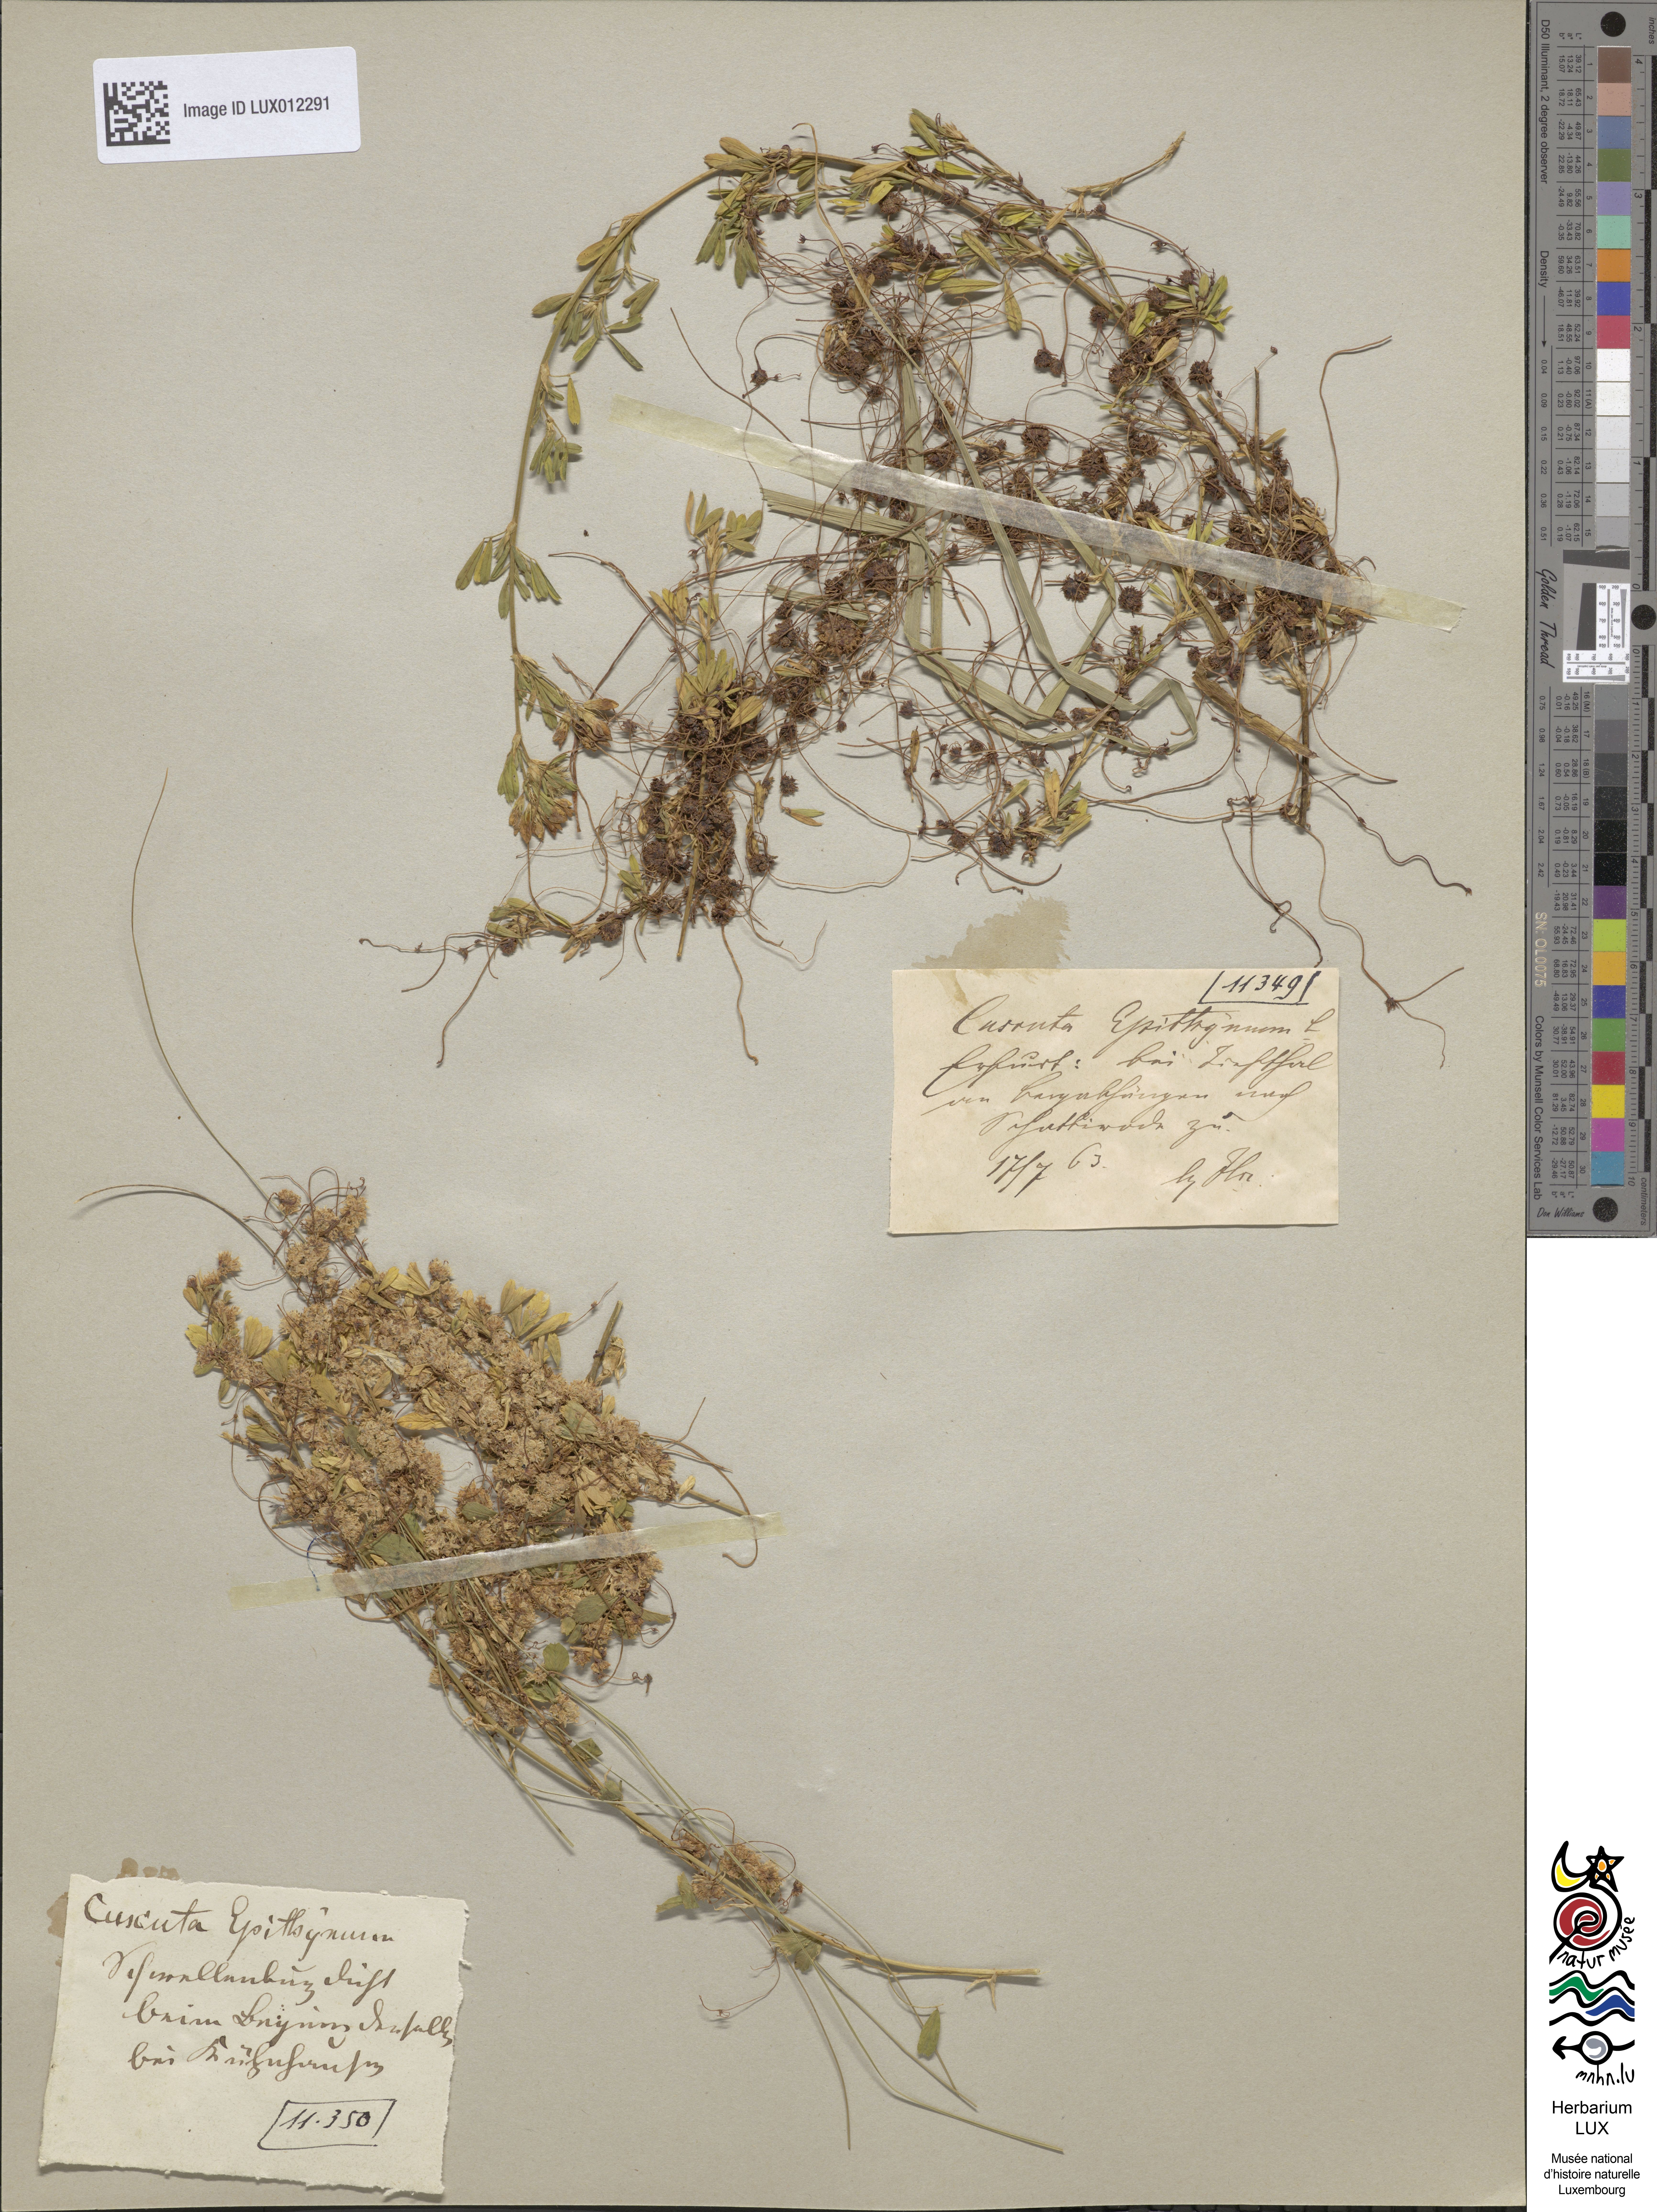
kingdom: Plantae
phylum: Tracheophyta
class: Magnoliopsida
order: Solanales
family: Convolvulaceae
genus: Cuscuta
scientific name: Cuscuta epithymum
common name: Clover dodder
